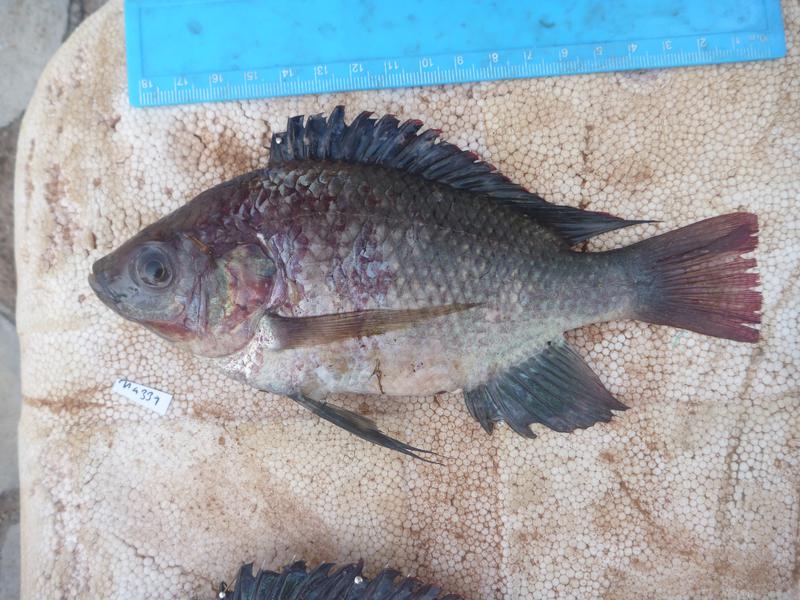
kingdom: Animalia
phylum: Chordata
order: Perciformes
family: Cichlidae
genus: Oreochromis
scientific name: Oreochromis esculentus
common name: Carp
